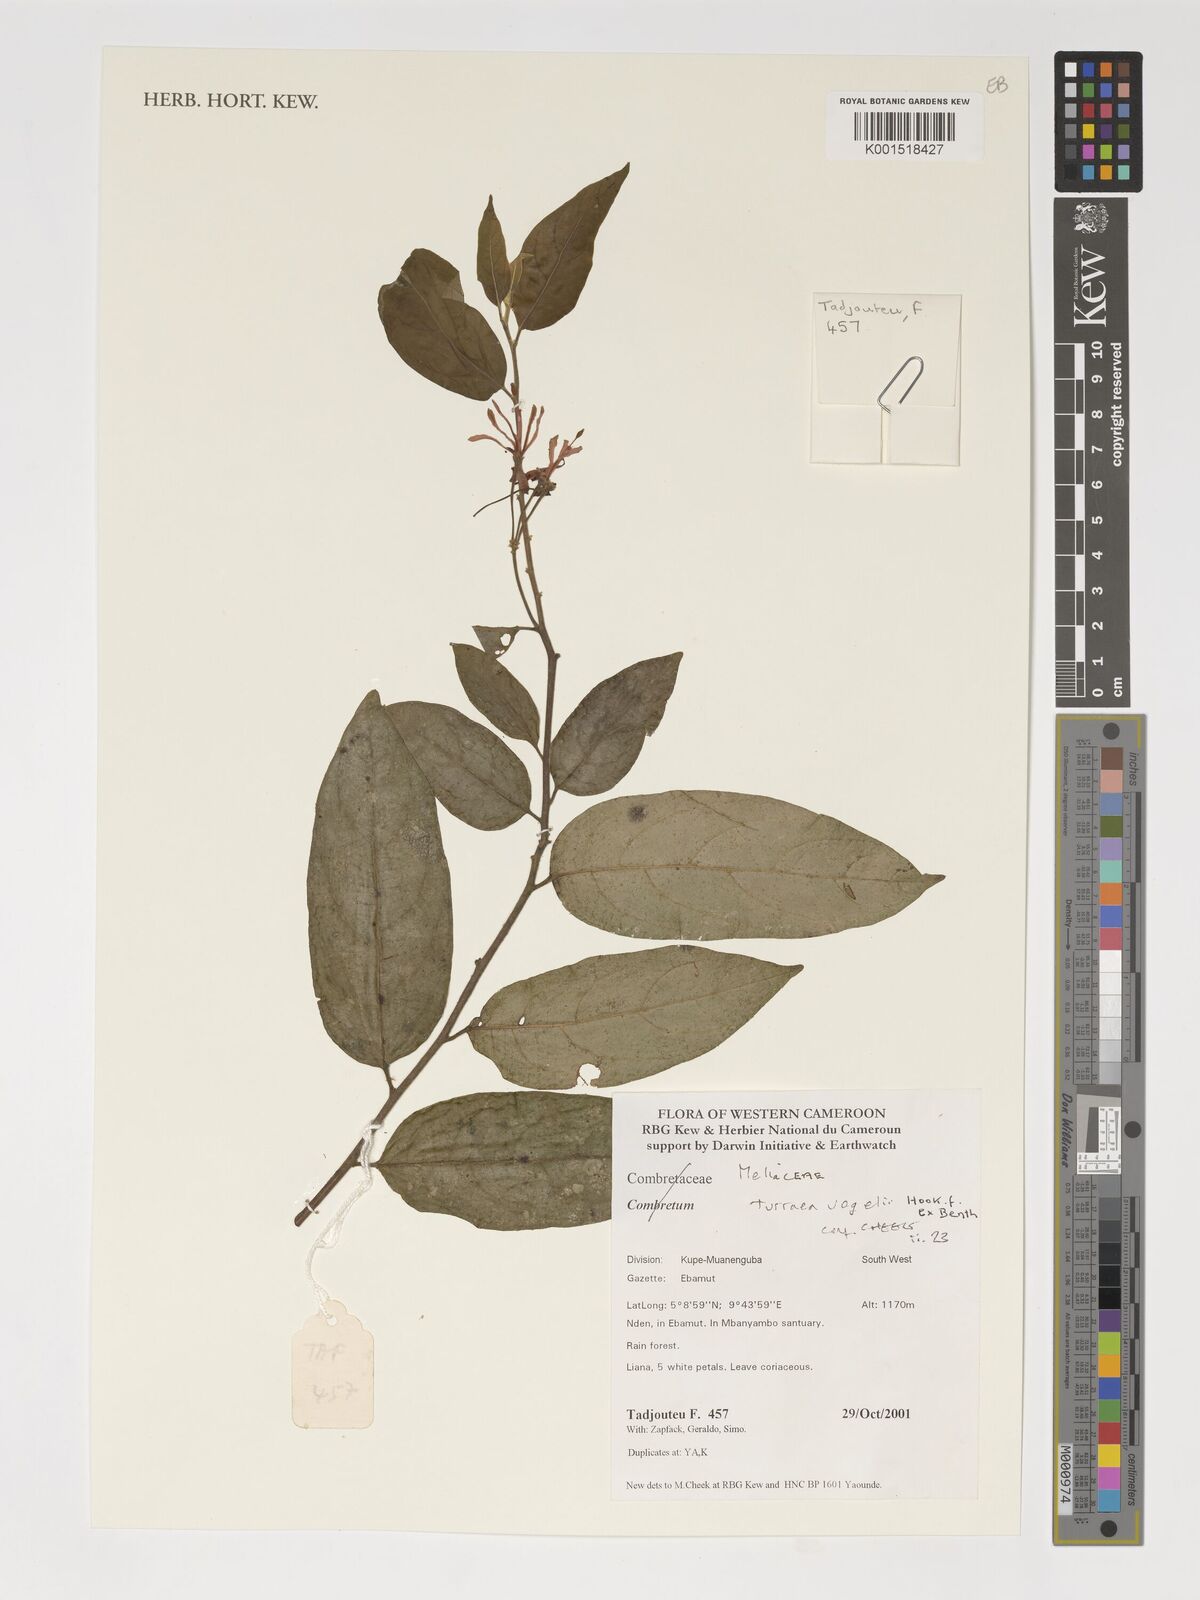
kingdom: Plantae
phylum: Tracheophyta
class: Magnoliopsida
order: Sapindales
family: Meliaceae
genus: Turraea
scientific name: Turraea vogelii
